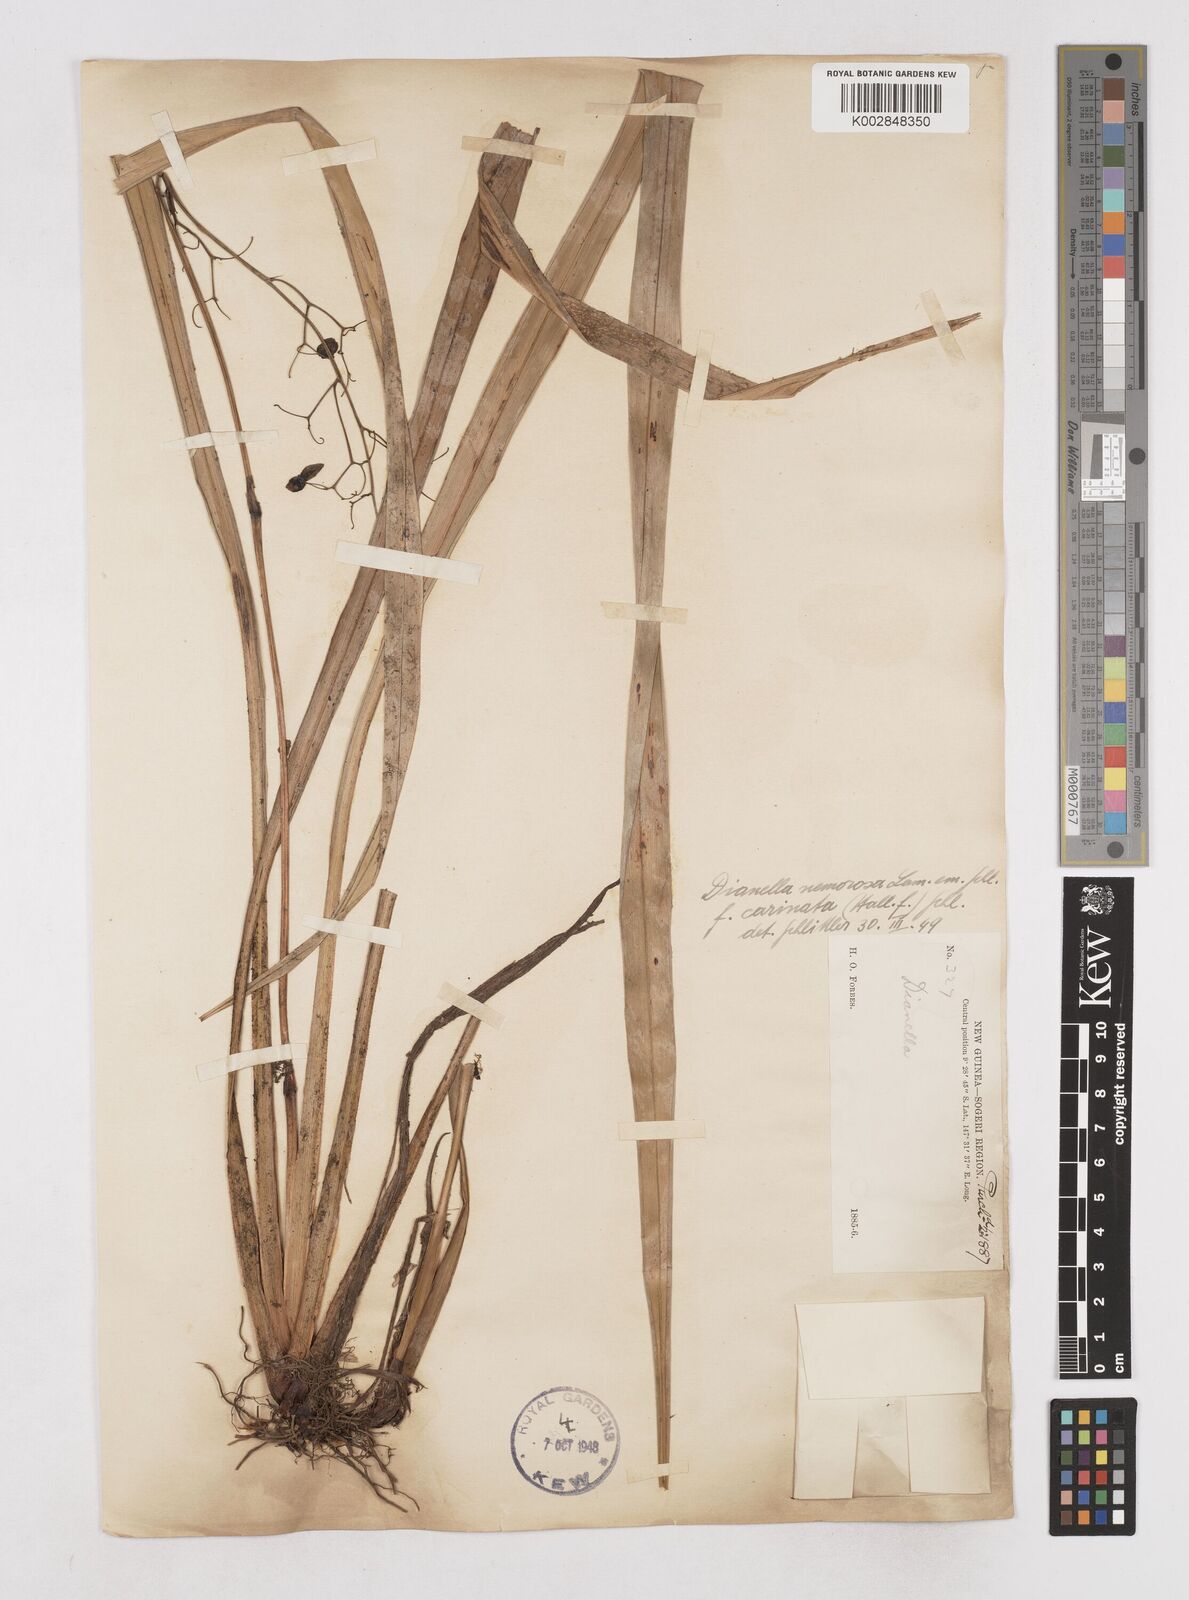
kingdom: Plantae
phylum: Tracheophyta
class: Liliopsida
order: Asparagales
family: Asphodelaceae
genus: Dianella
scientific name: Dianella ensifolia
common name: New zealand lilyplant
